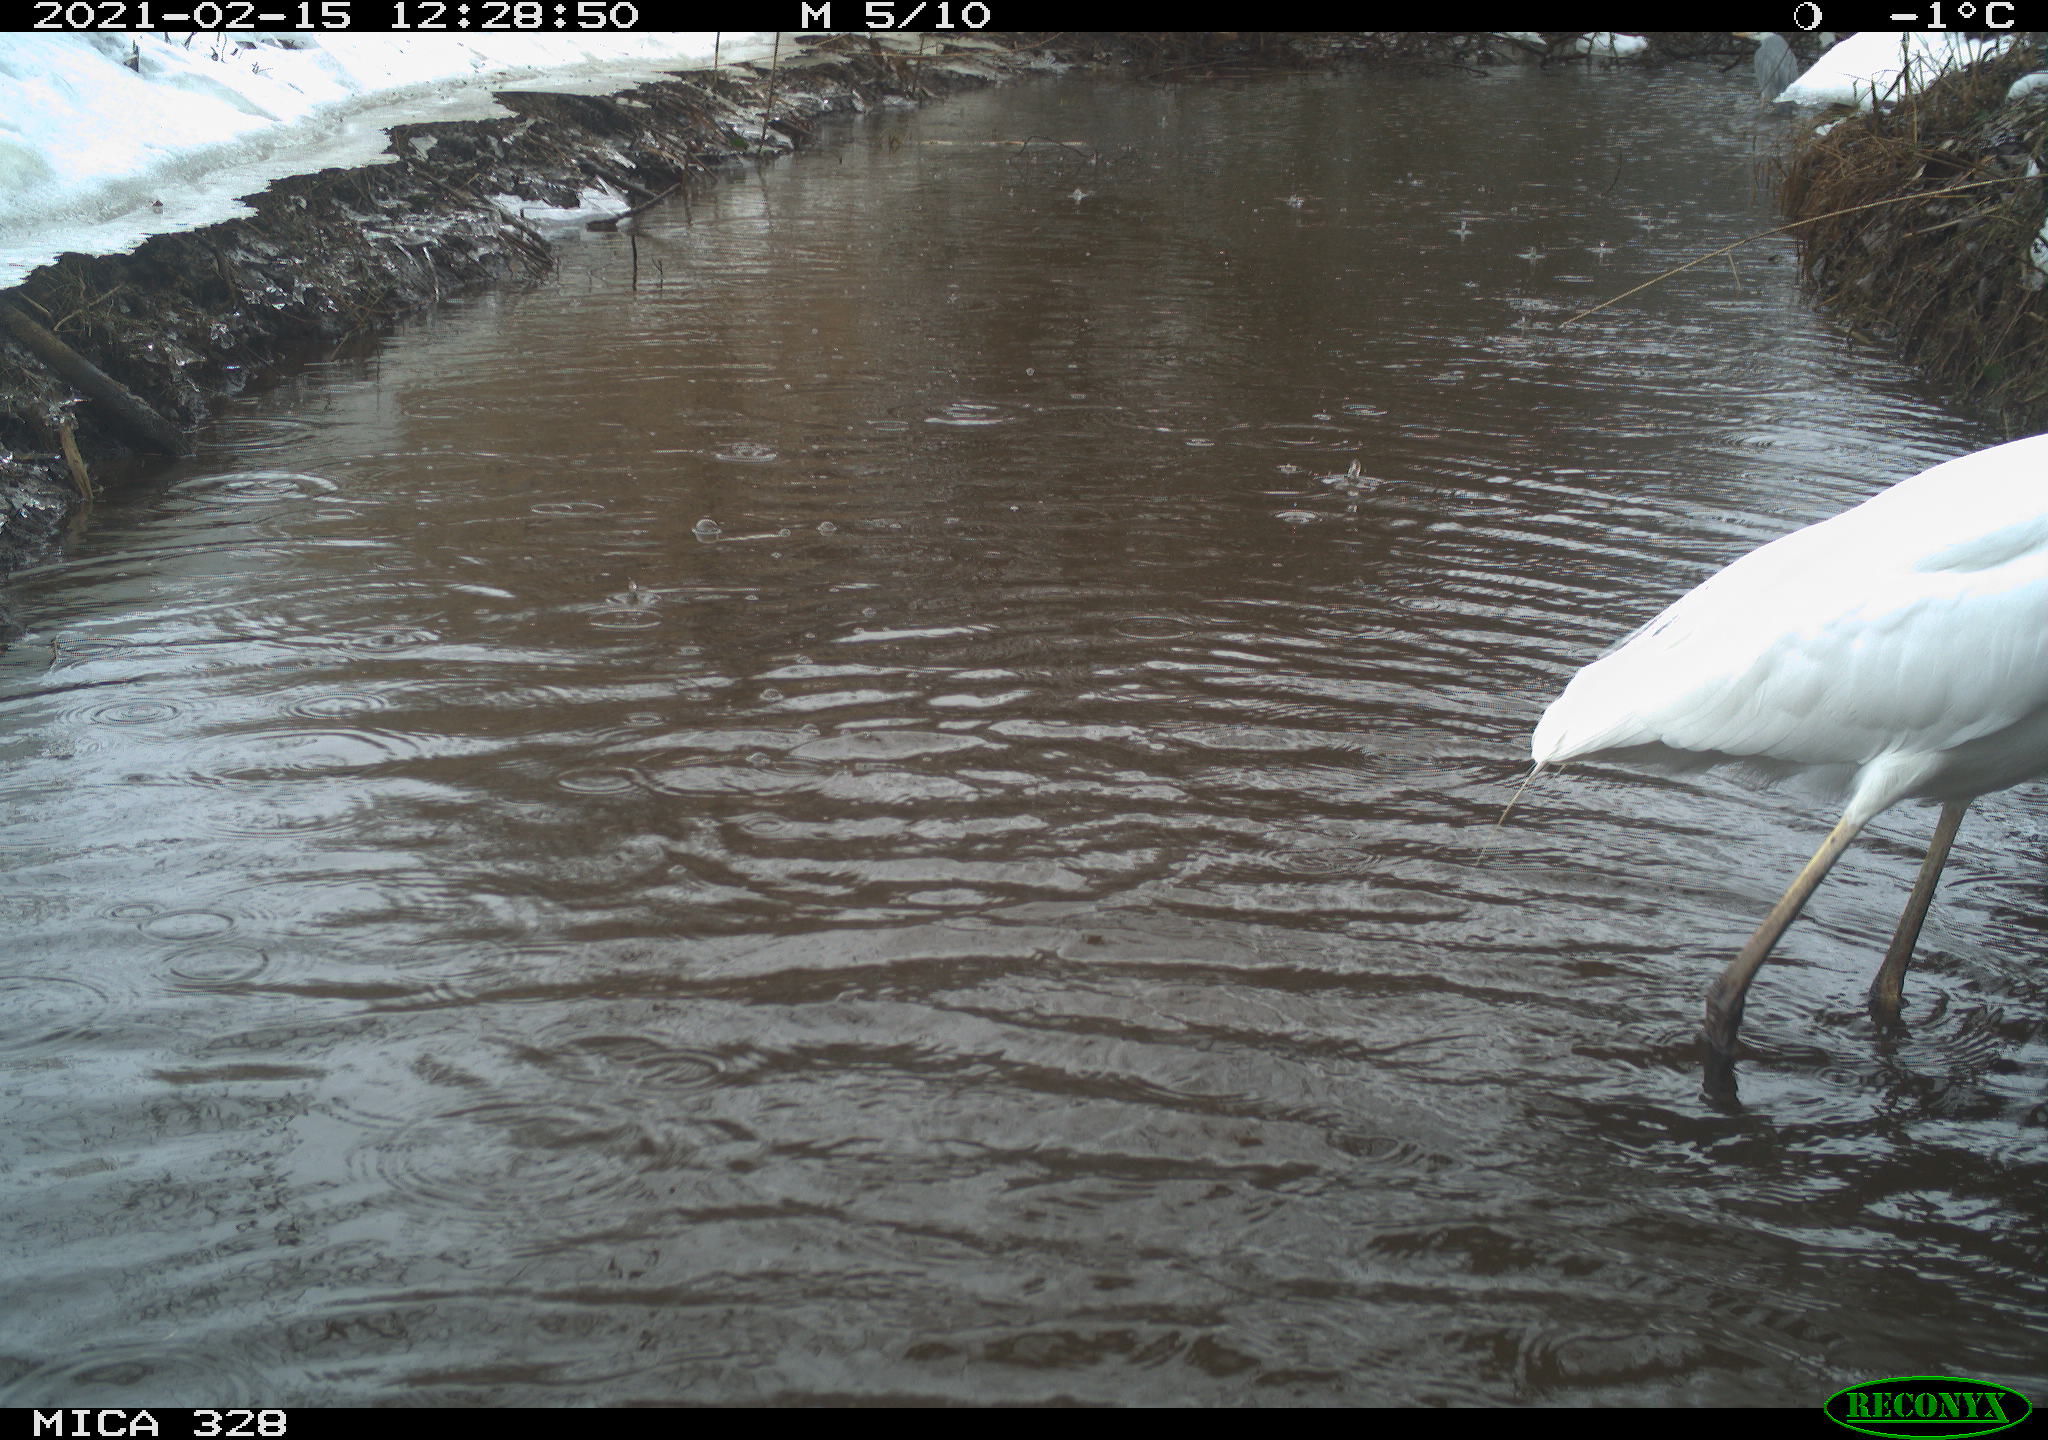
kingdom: Animalia
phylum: Chordata
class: Aves
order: Pelecaniformes
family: Ardeidae
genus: Ardea
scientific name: Ardea alba
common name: Great egret
